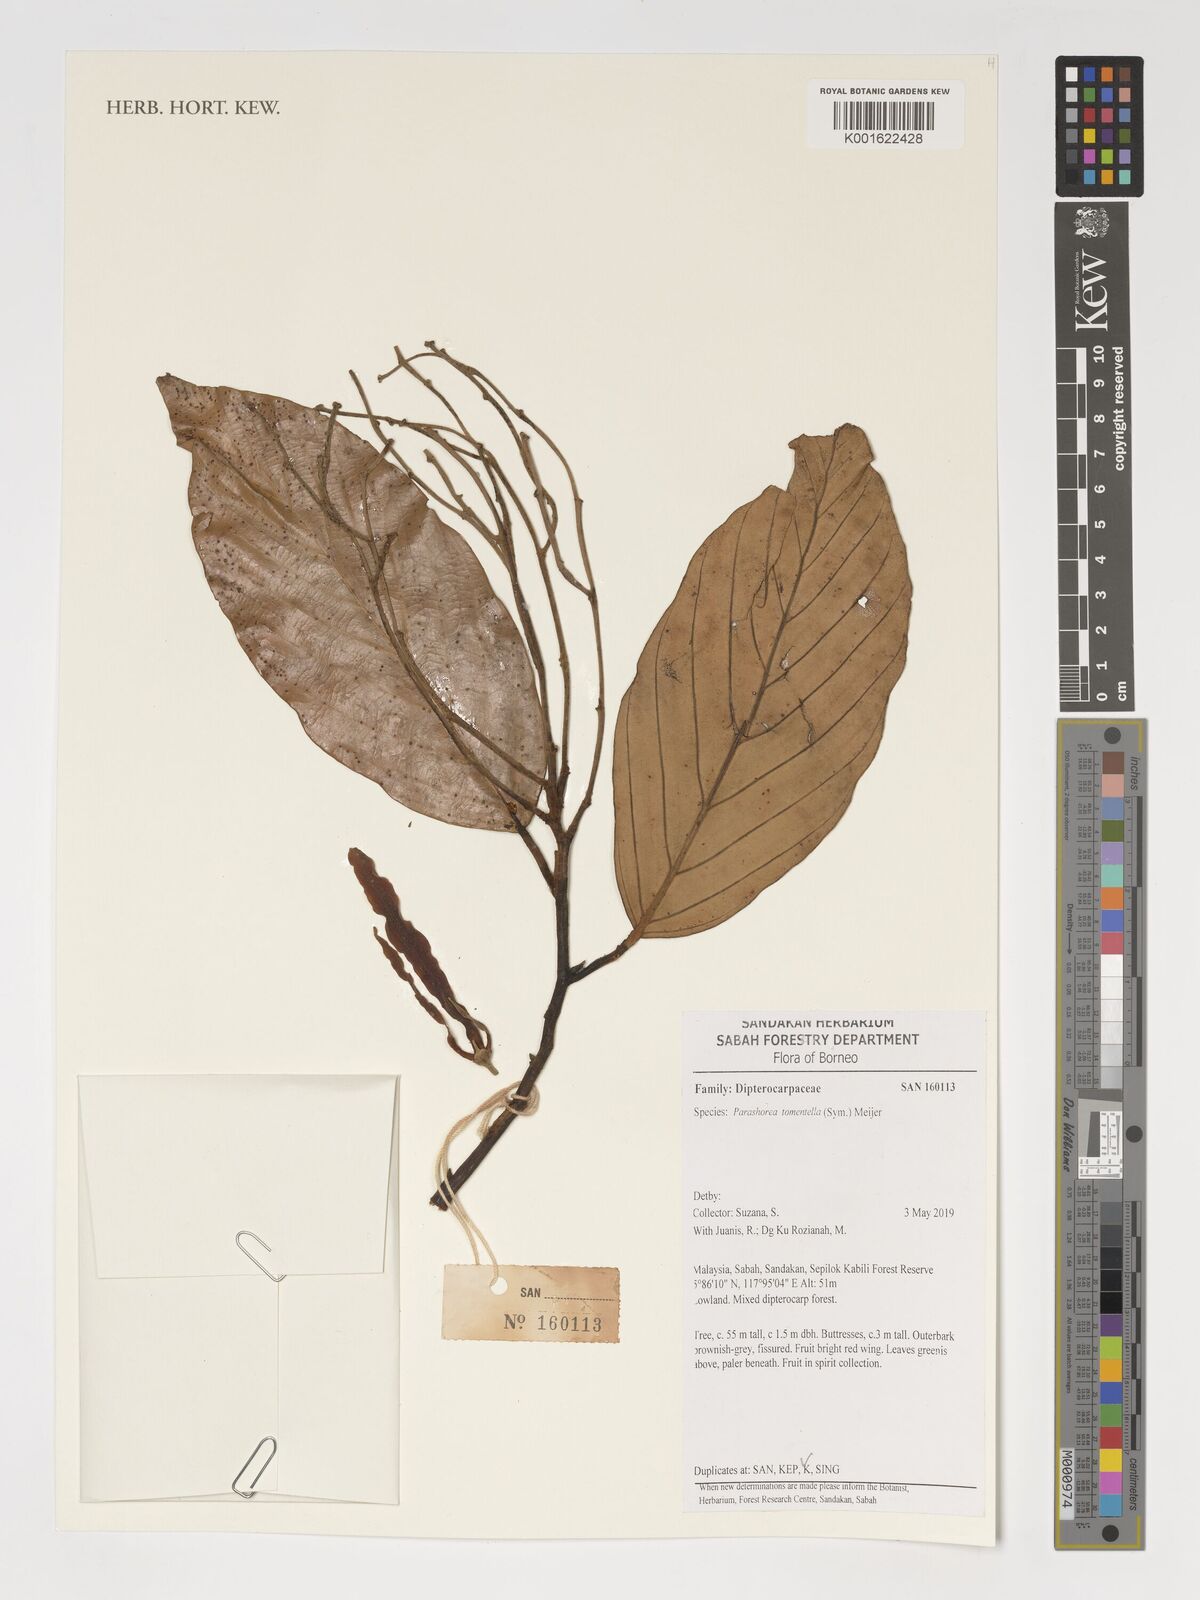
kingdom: Plantae
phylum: Tracheophyta
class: Magnoliopsida
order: Malvales
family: Dipterocarpaceae
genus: Parashorea
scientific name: Parashorea warburgii
